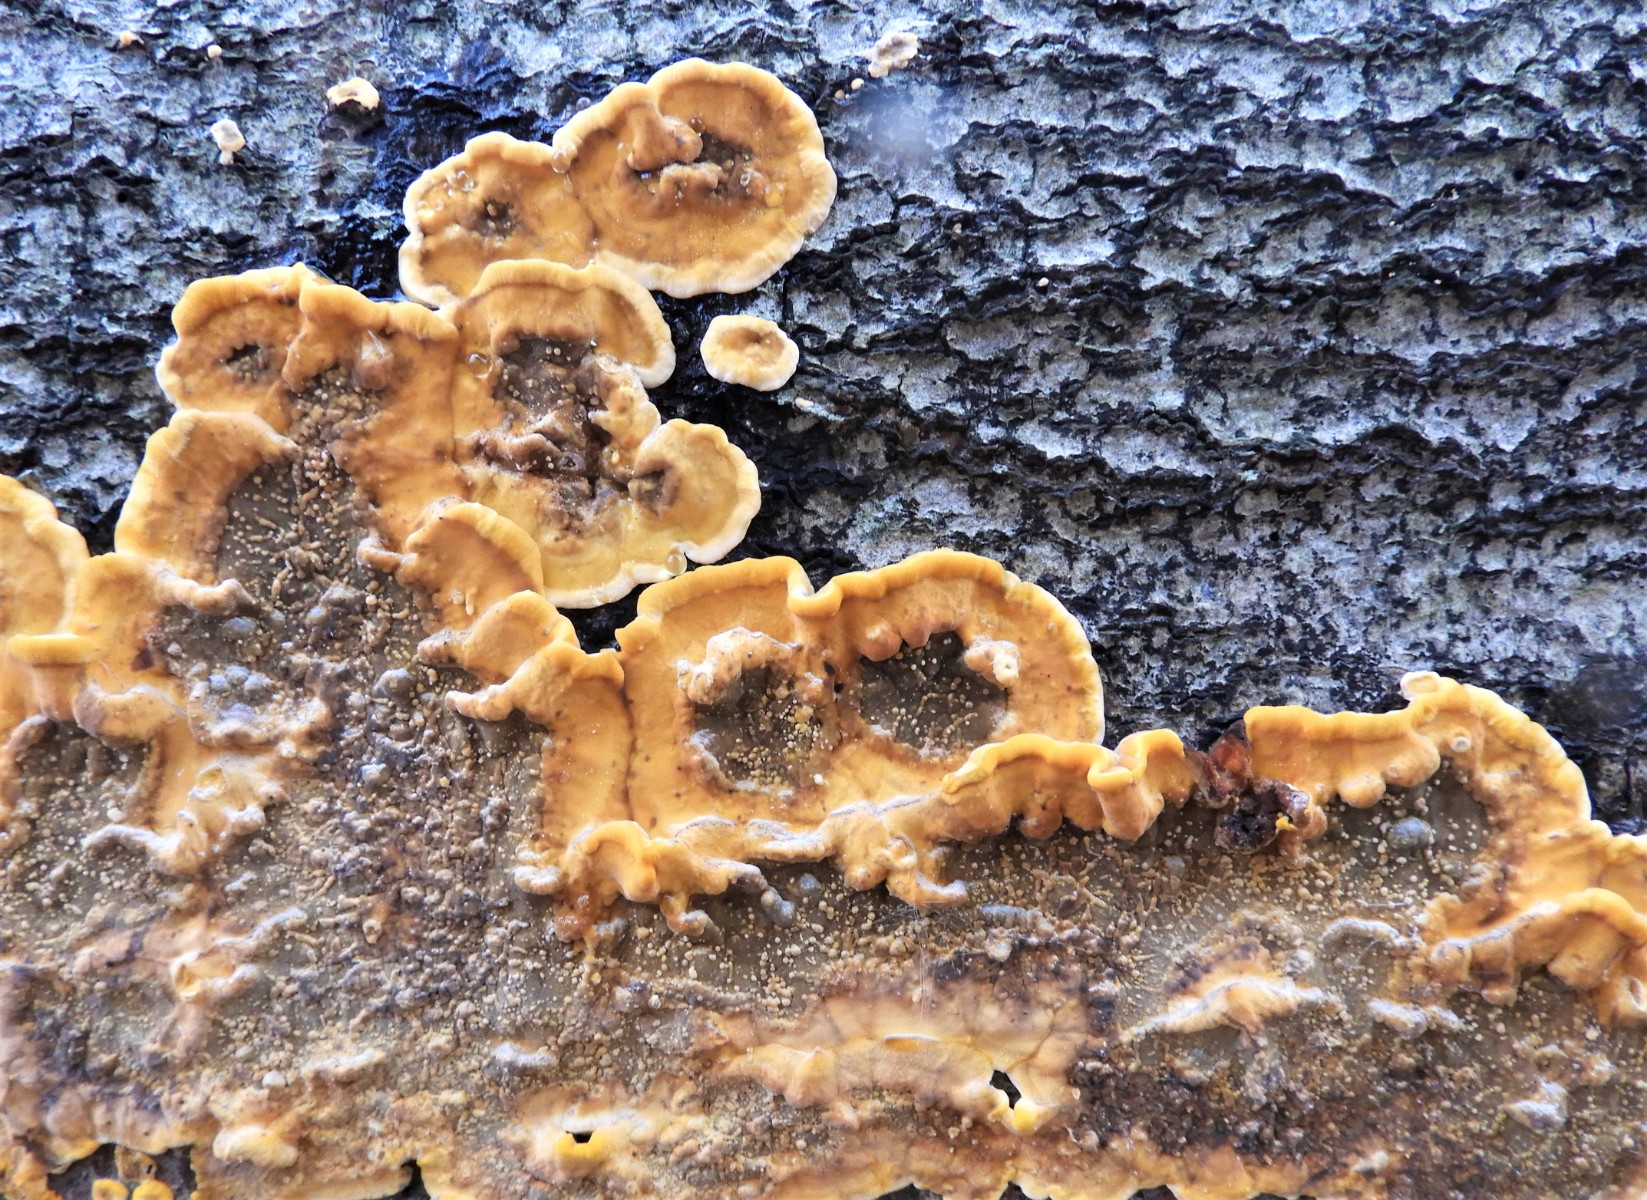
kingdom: Fungi
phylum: Basidiomycota
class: Agaricomycetes
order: Russulales
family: Stereaceae
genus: Stereum
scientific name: Stereum hirsutum
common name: håret lædersvamp
